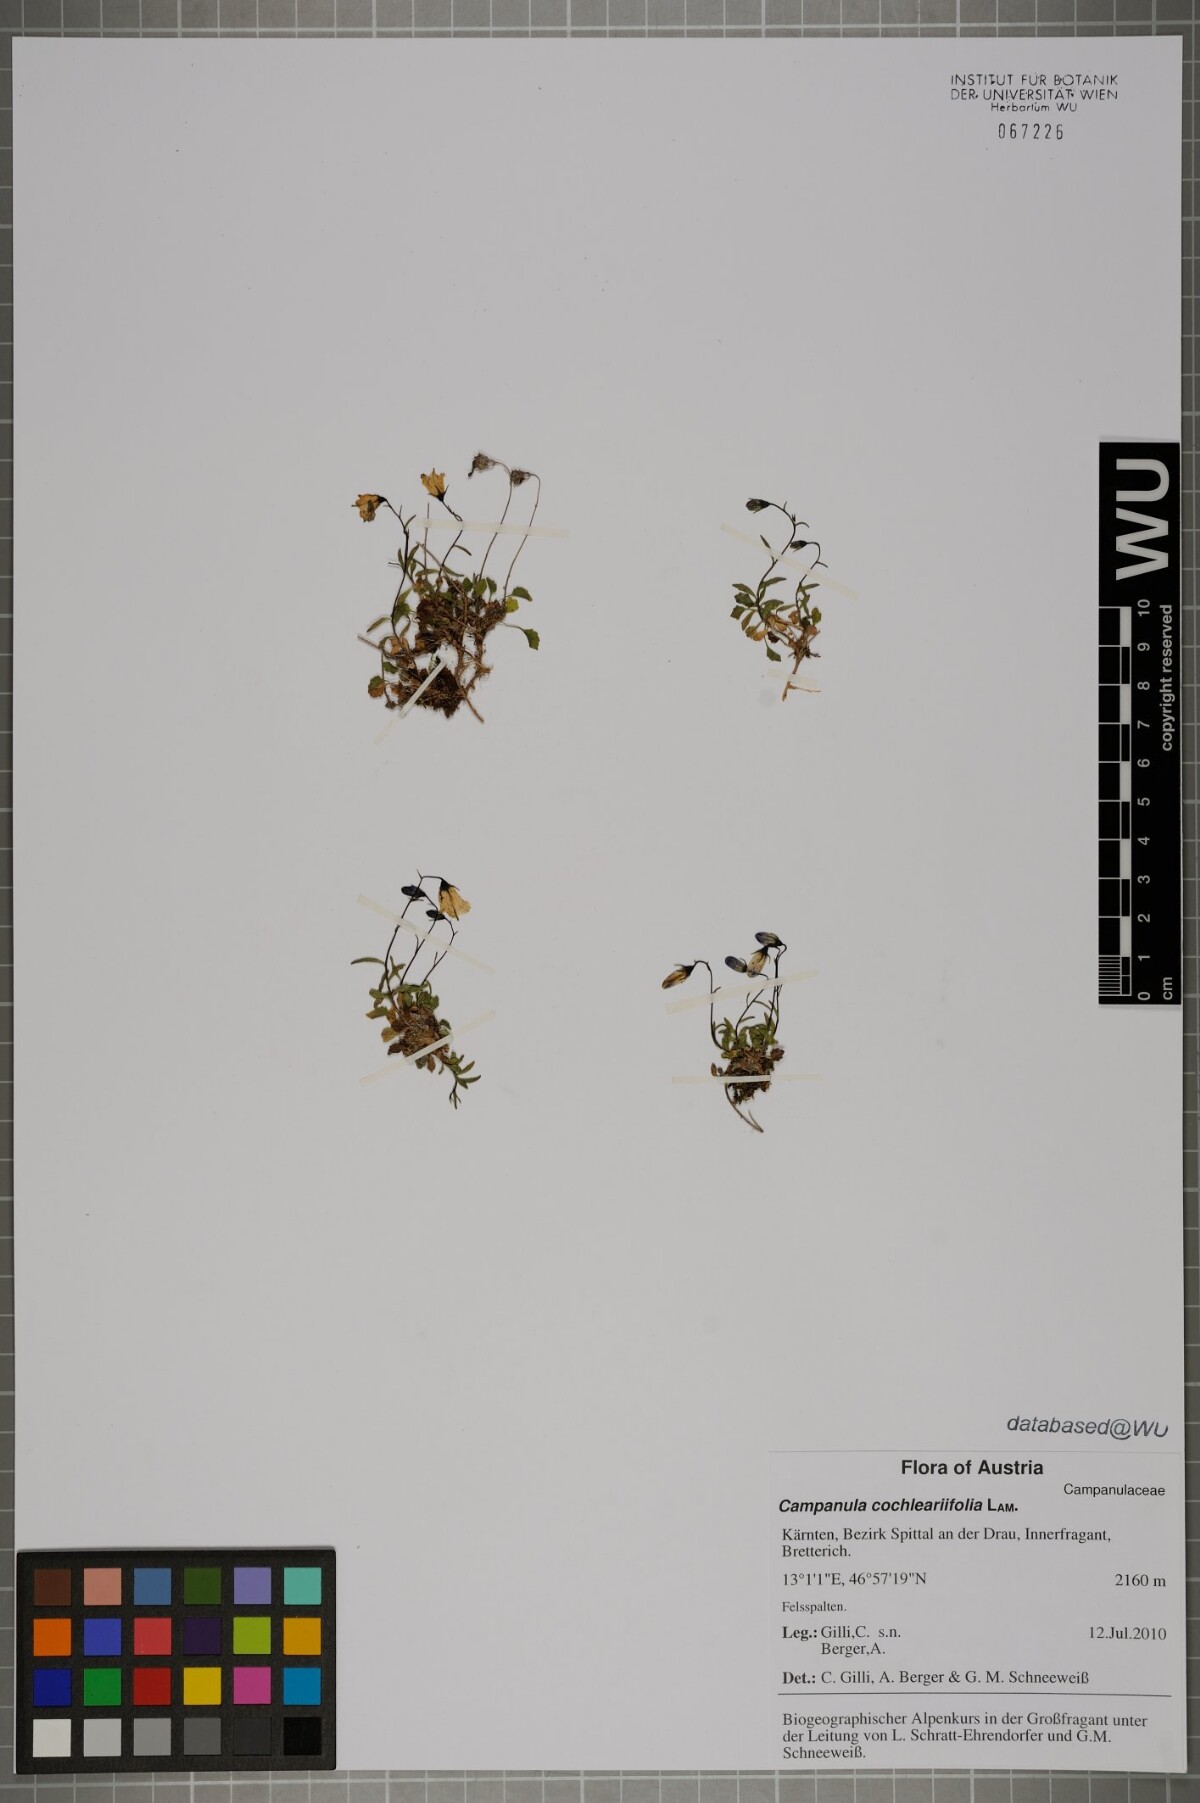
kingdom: Plantae
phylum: Tracheophyta
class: Magnoliopsida
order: Asterales
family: Campanulaceae
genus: Campanula
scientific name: Campanula cochleariifolia
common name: Fairies'-thimbles
